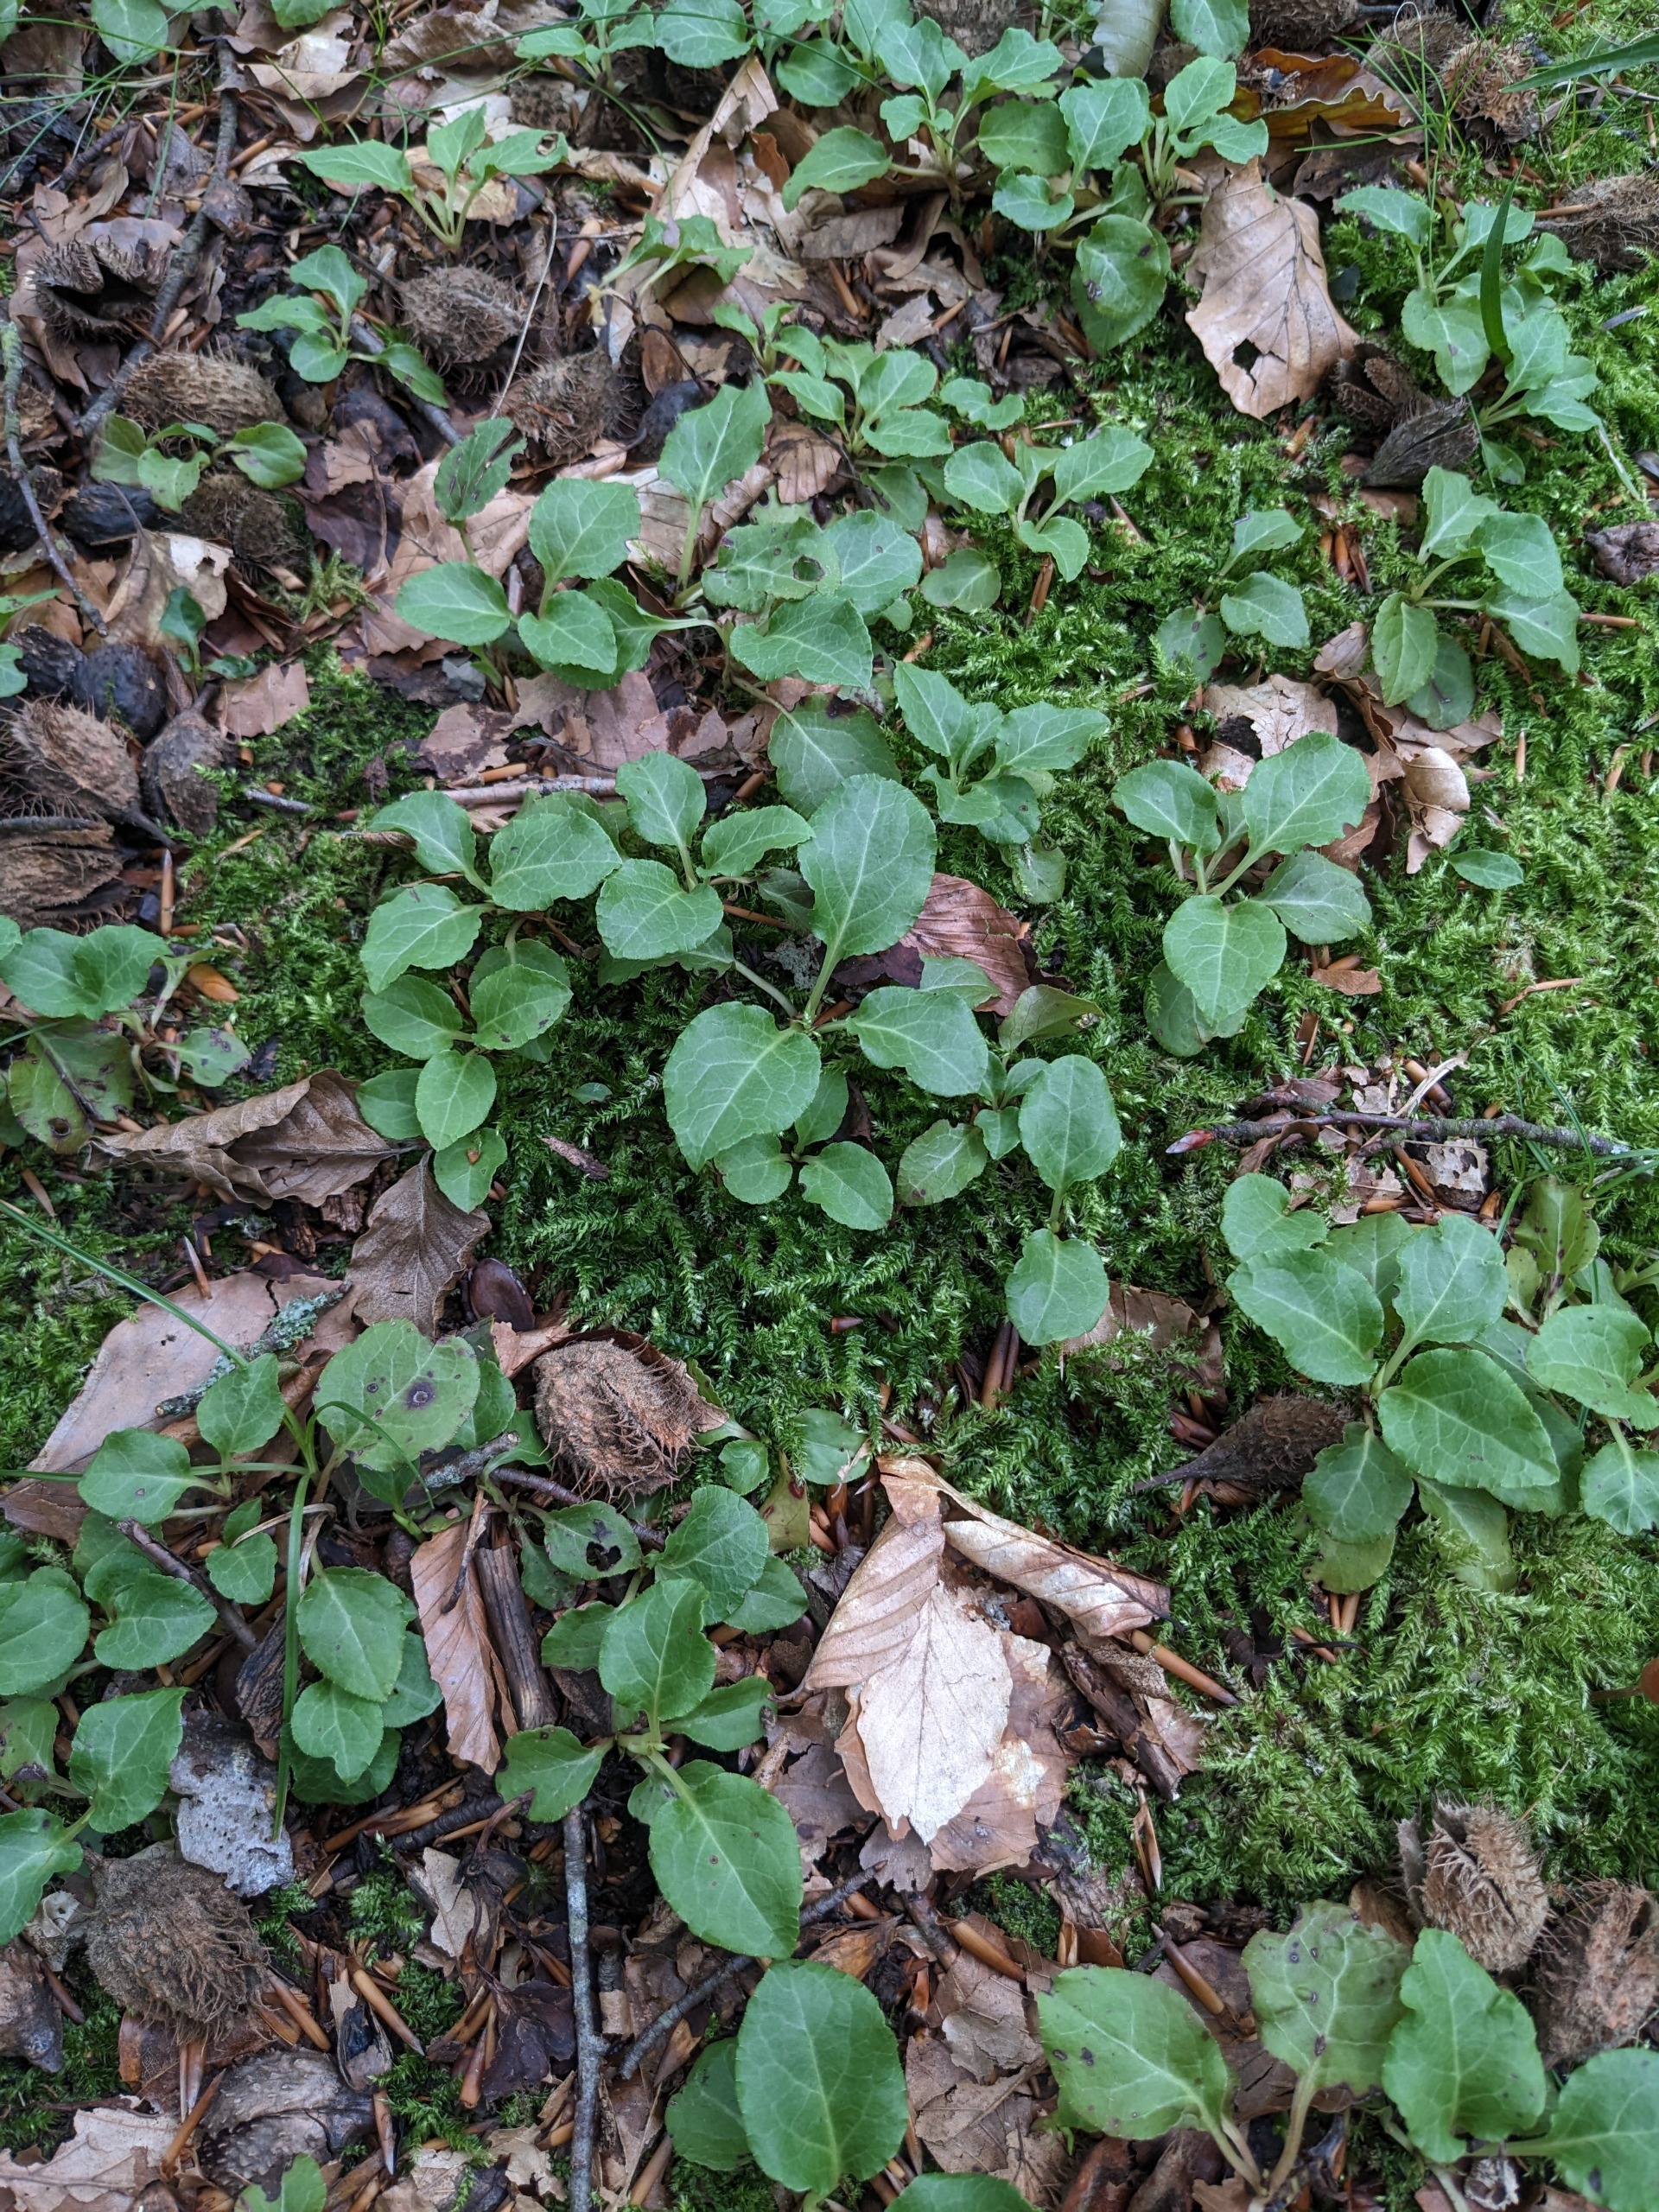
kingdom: Plantae
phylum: Tracheophyta
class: Magnoliopsida
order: Ericales
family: Ericaceae
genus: Pyrola
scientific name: Pyrola minor
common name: Liden vintergrøn
